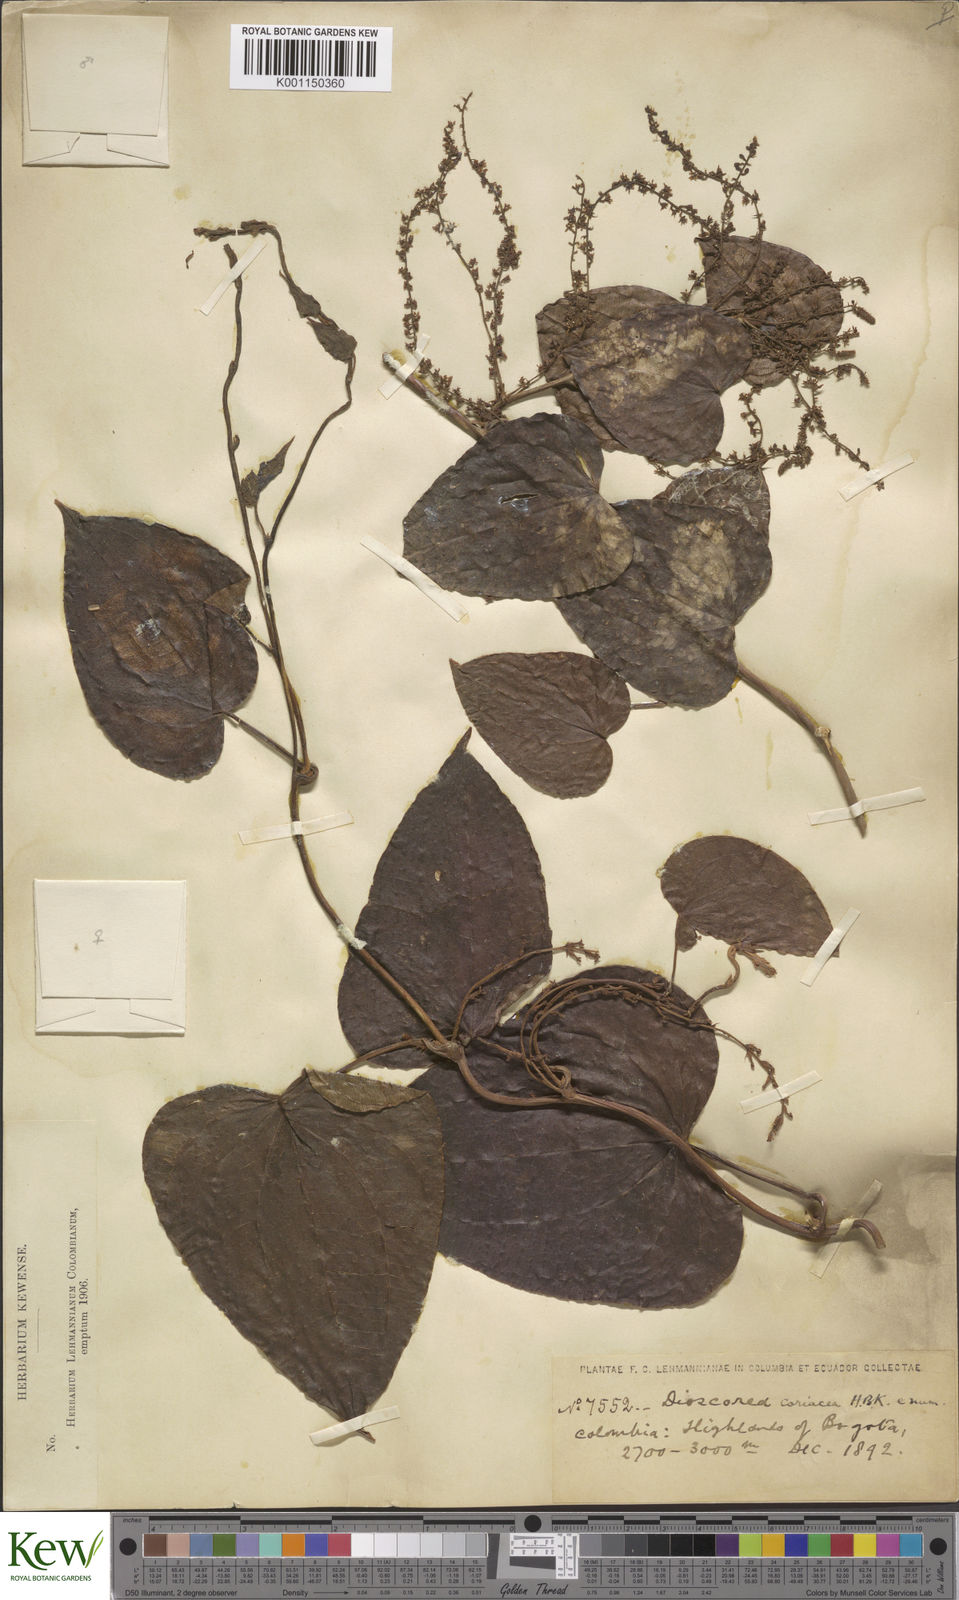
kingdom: Plantae
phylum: Tracheophyta
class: Liliopsida
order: Dioscoreales
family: Dioscoreaceae
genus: Dioscorea
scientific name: Dioscorea coriacea
